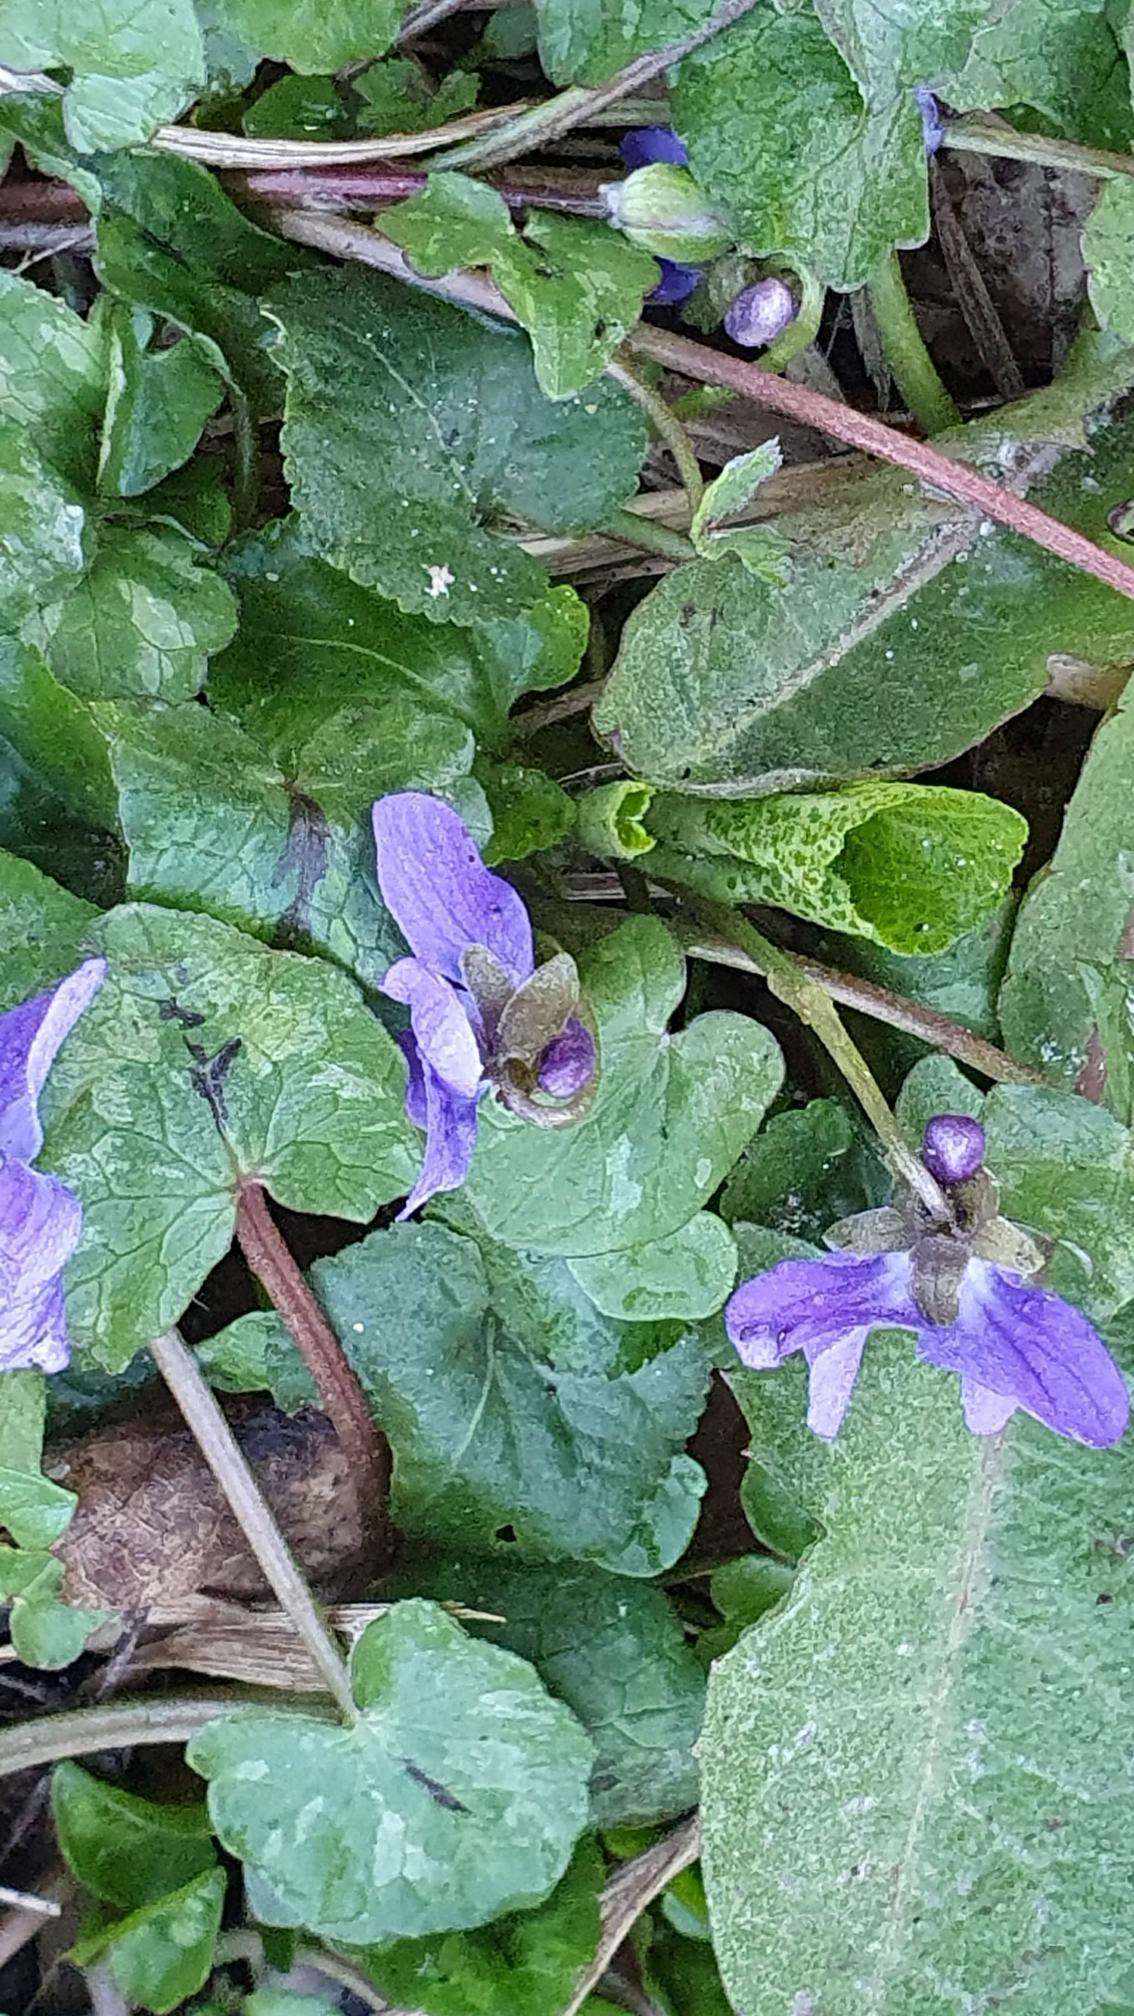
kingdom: Plantae
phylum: Tracheophyta
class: Magnoliopsida
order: Malpighiales
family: Violaceae
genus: Viola
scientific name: Viola odorata
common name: Marts-viol
